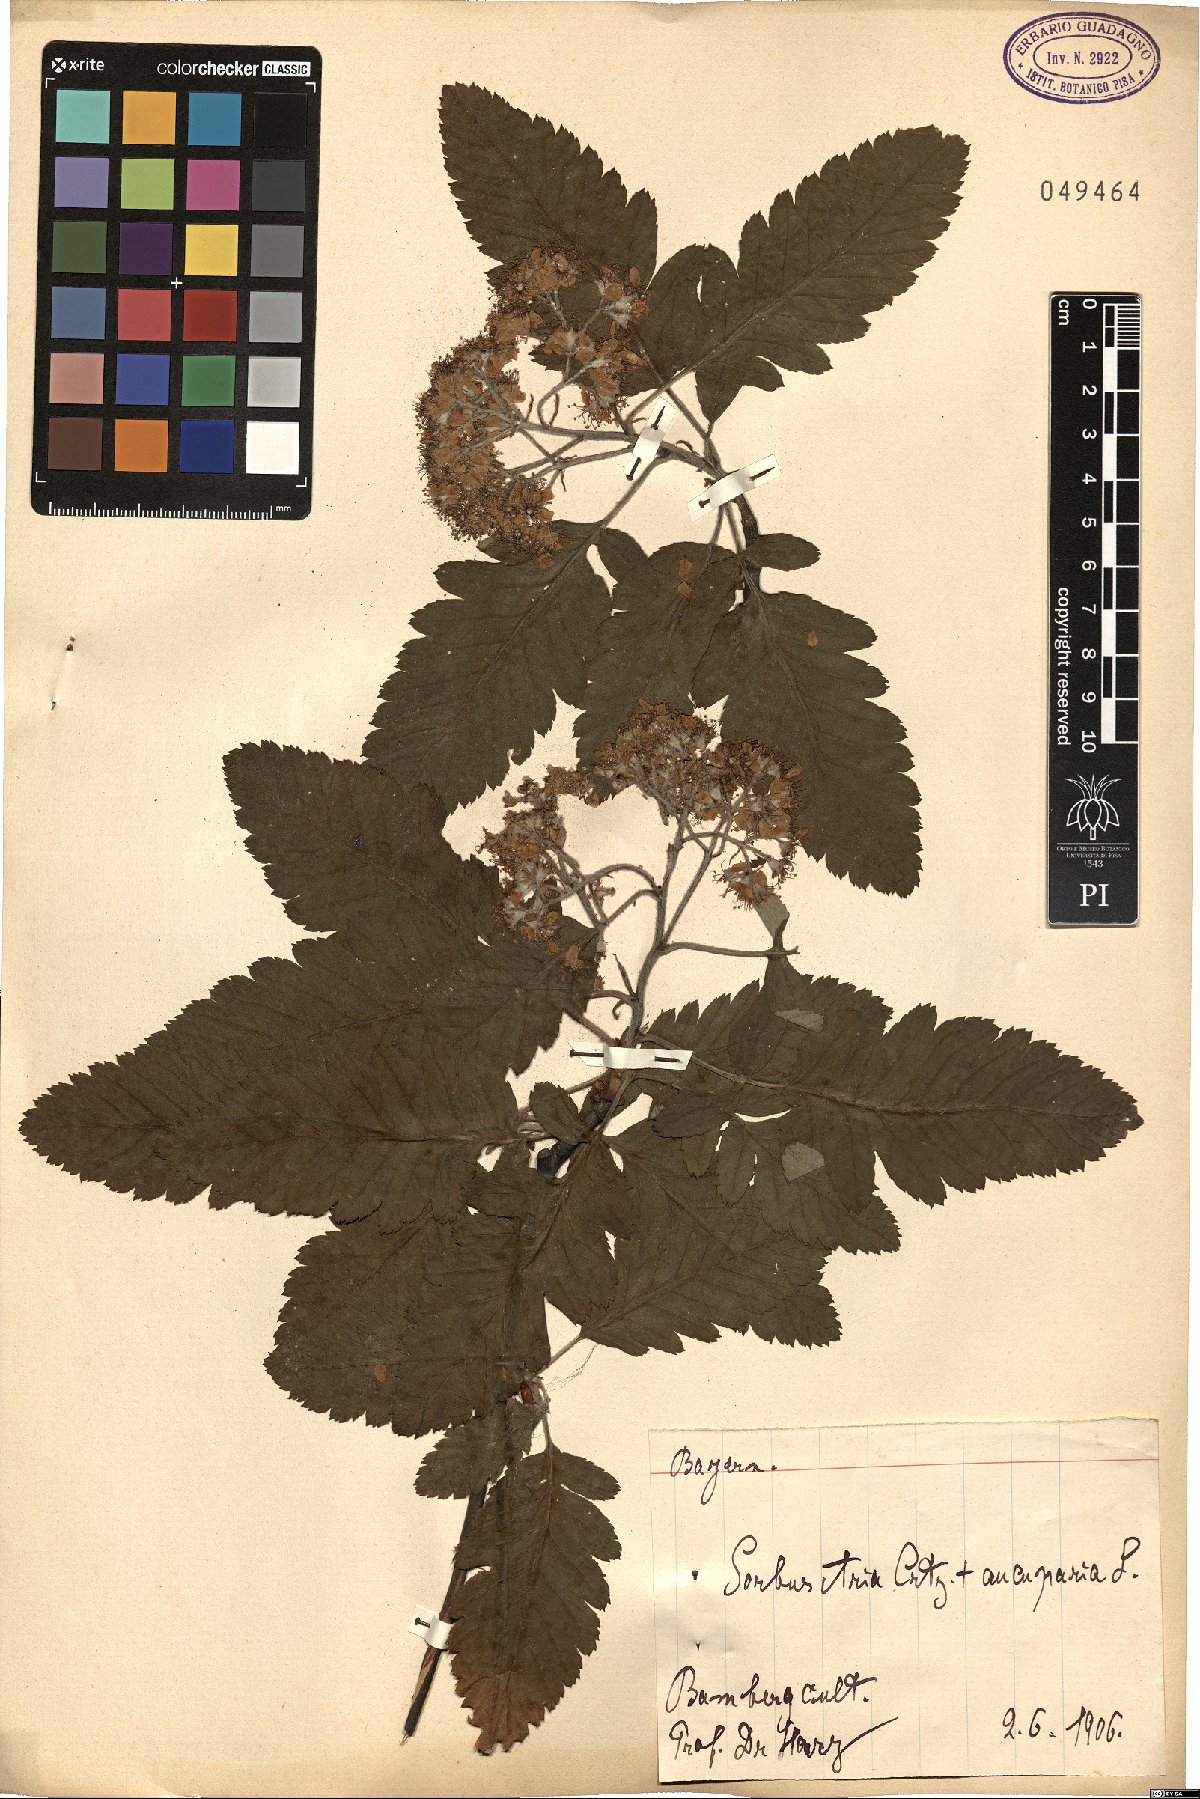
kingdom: Plantae
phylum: Tracheophyta
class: Magnoliopsida
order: Rosales
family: Rosaceae
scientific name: Rosaceae
